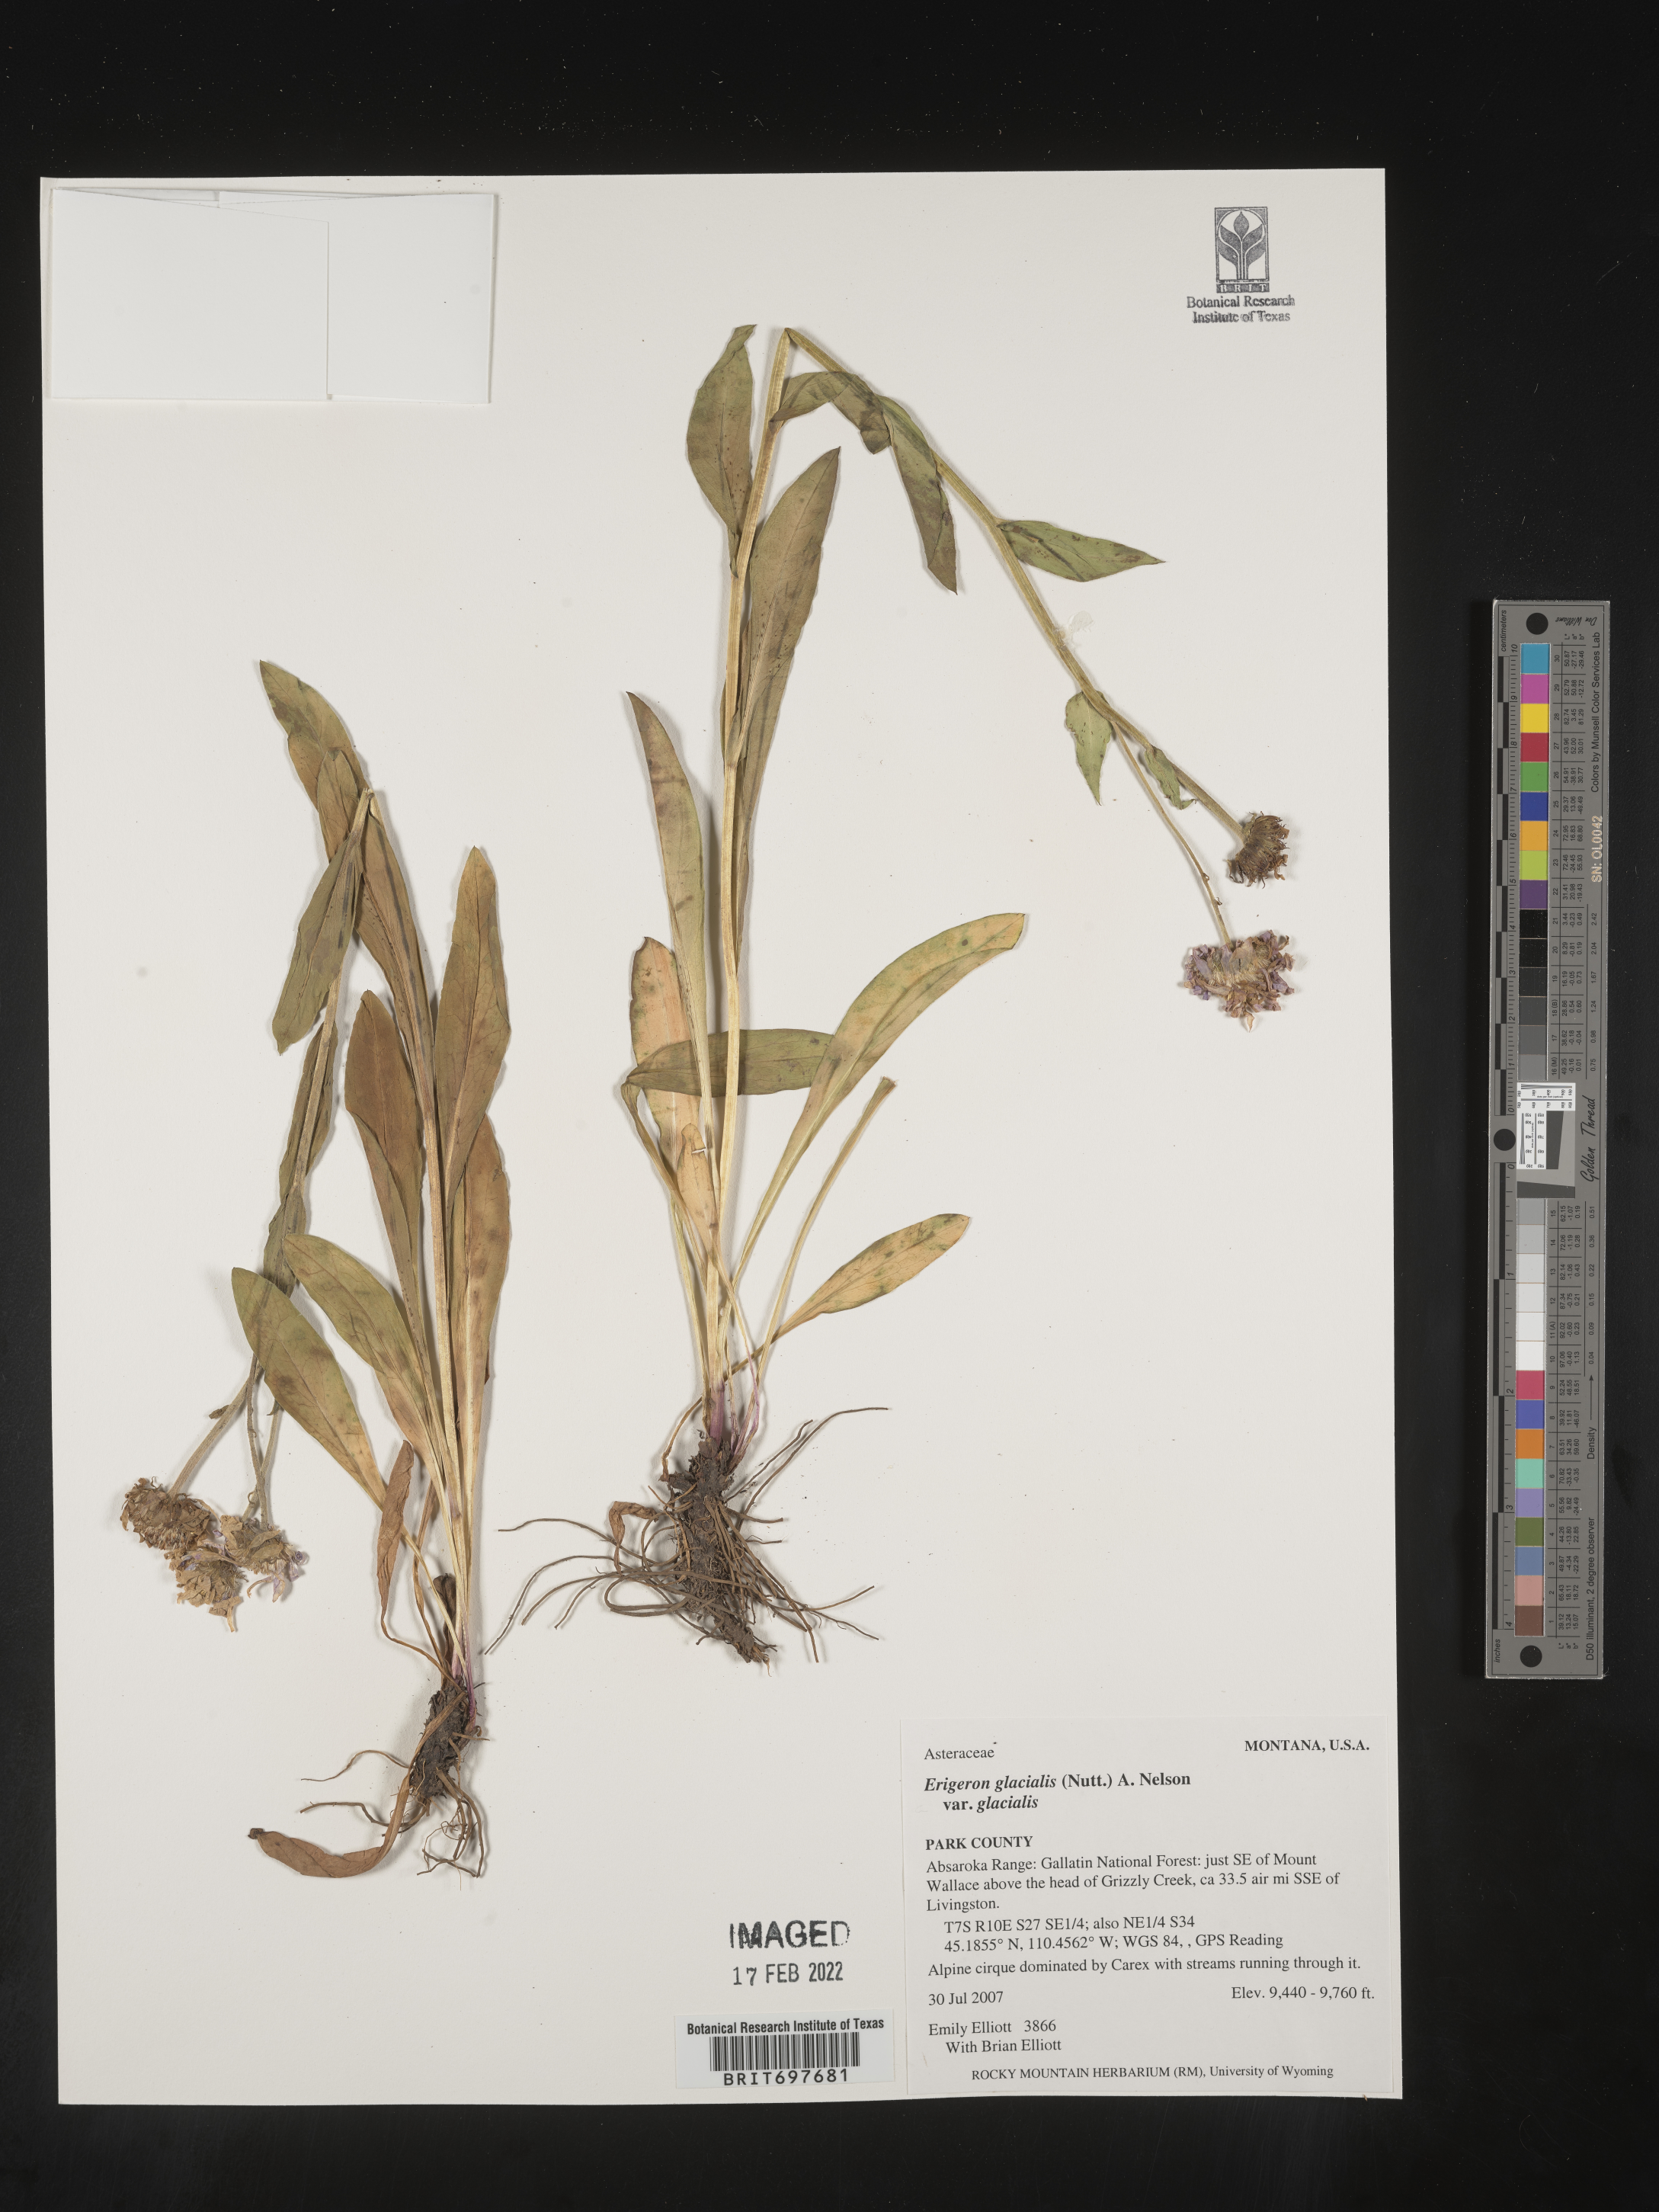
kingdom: Plantae
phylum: Tracheophyta
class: Magnoliopsida
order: Asterales
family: Asteraceae
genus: Erigeron
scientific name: Erigeron glacialis
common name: Subalpine fleabane
